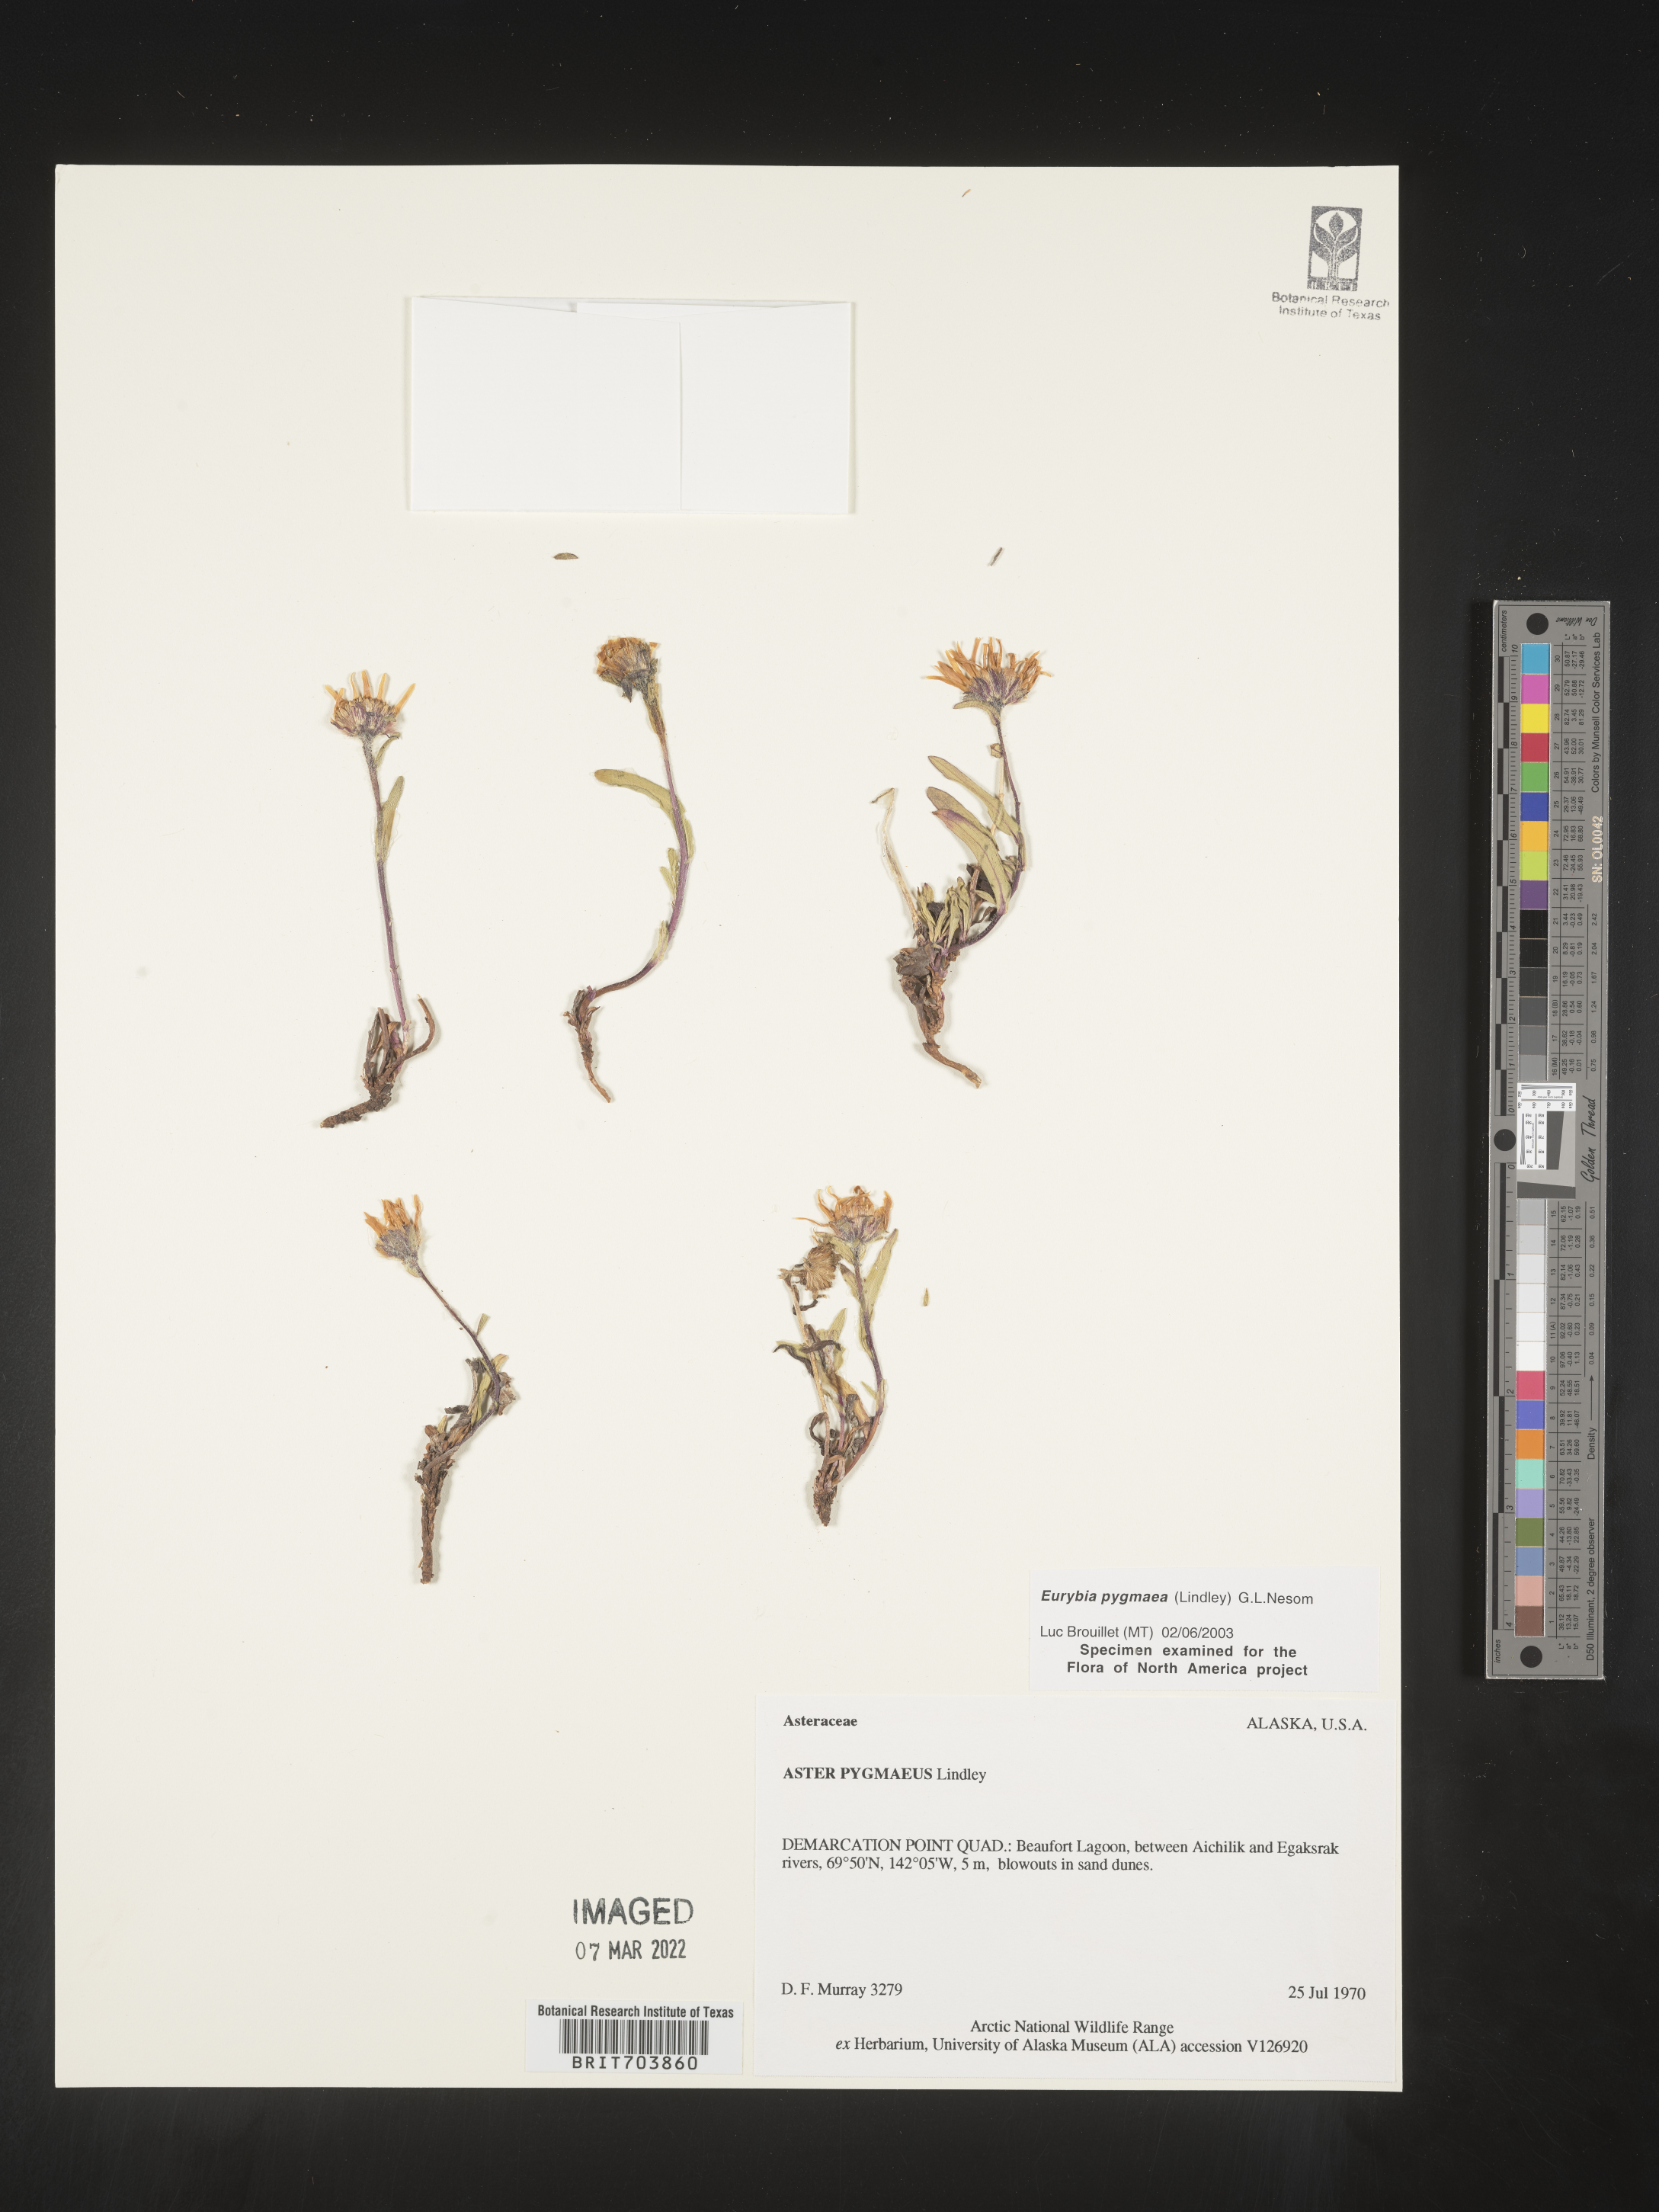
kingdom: Plantae
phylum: Tracheophyta
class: Magnoliopsida
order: Asterales
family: Asteraceae
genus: Symphyotrichum
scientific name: Symphyotrichum pygmaeum
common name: Pygmy aster
